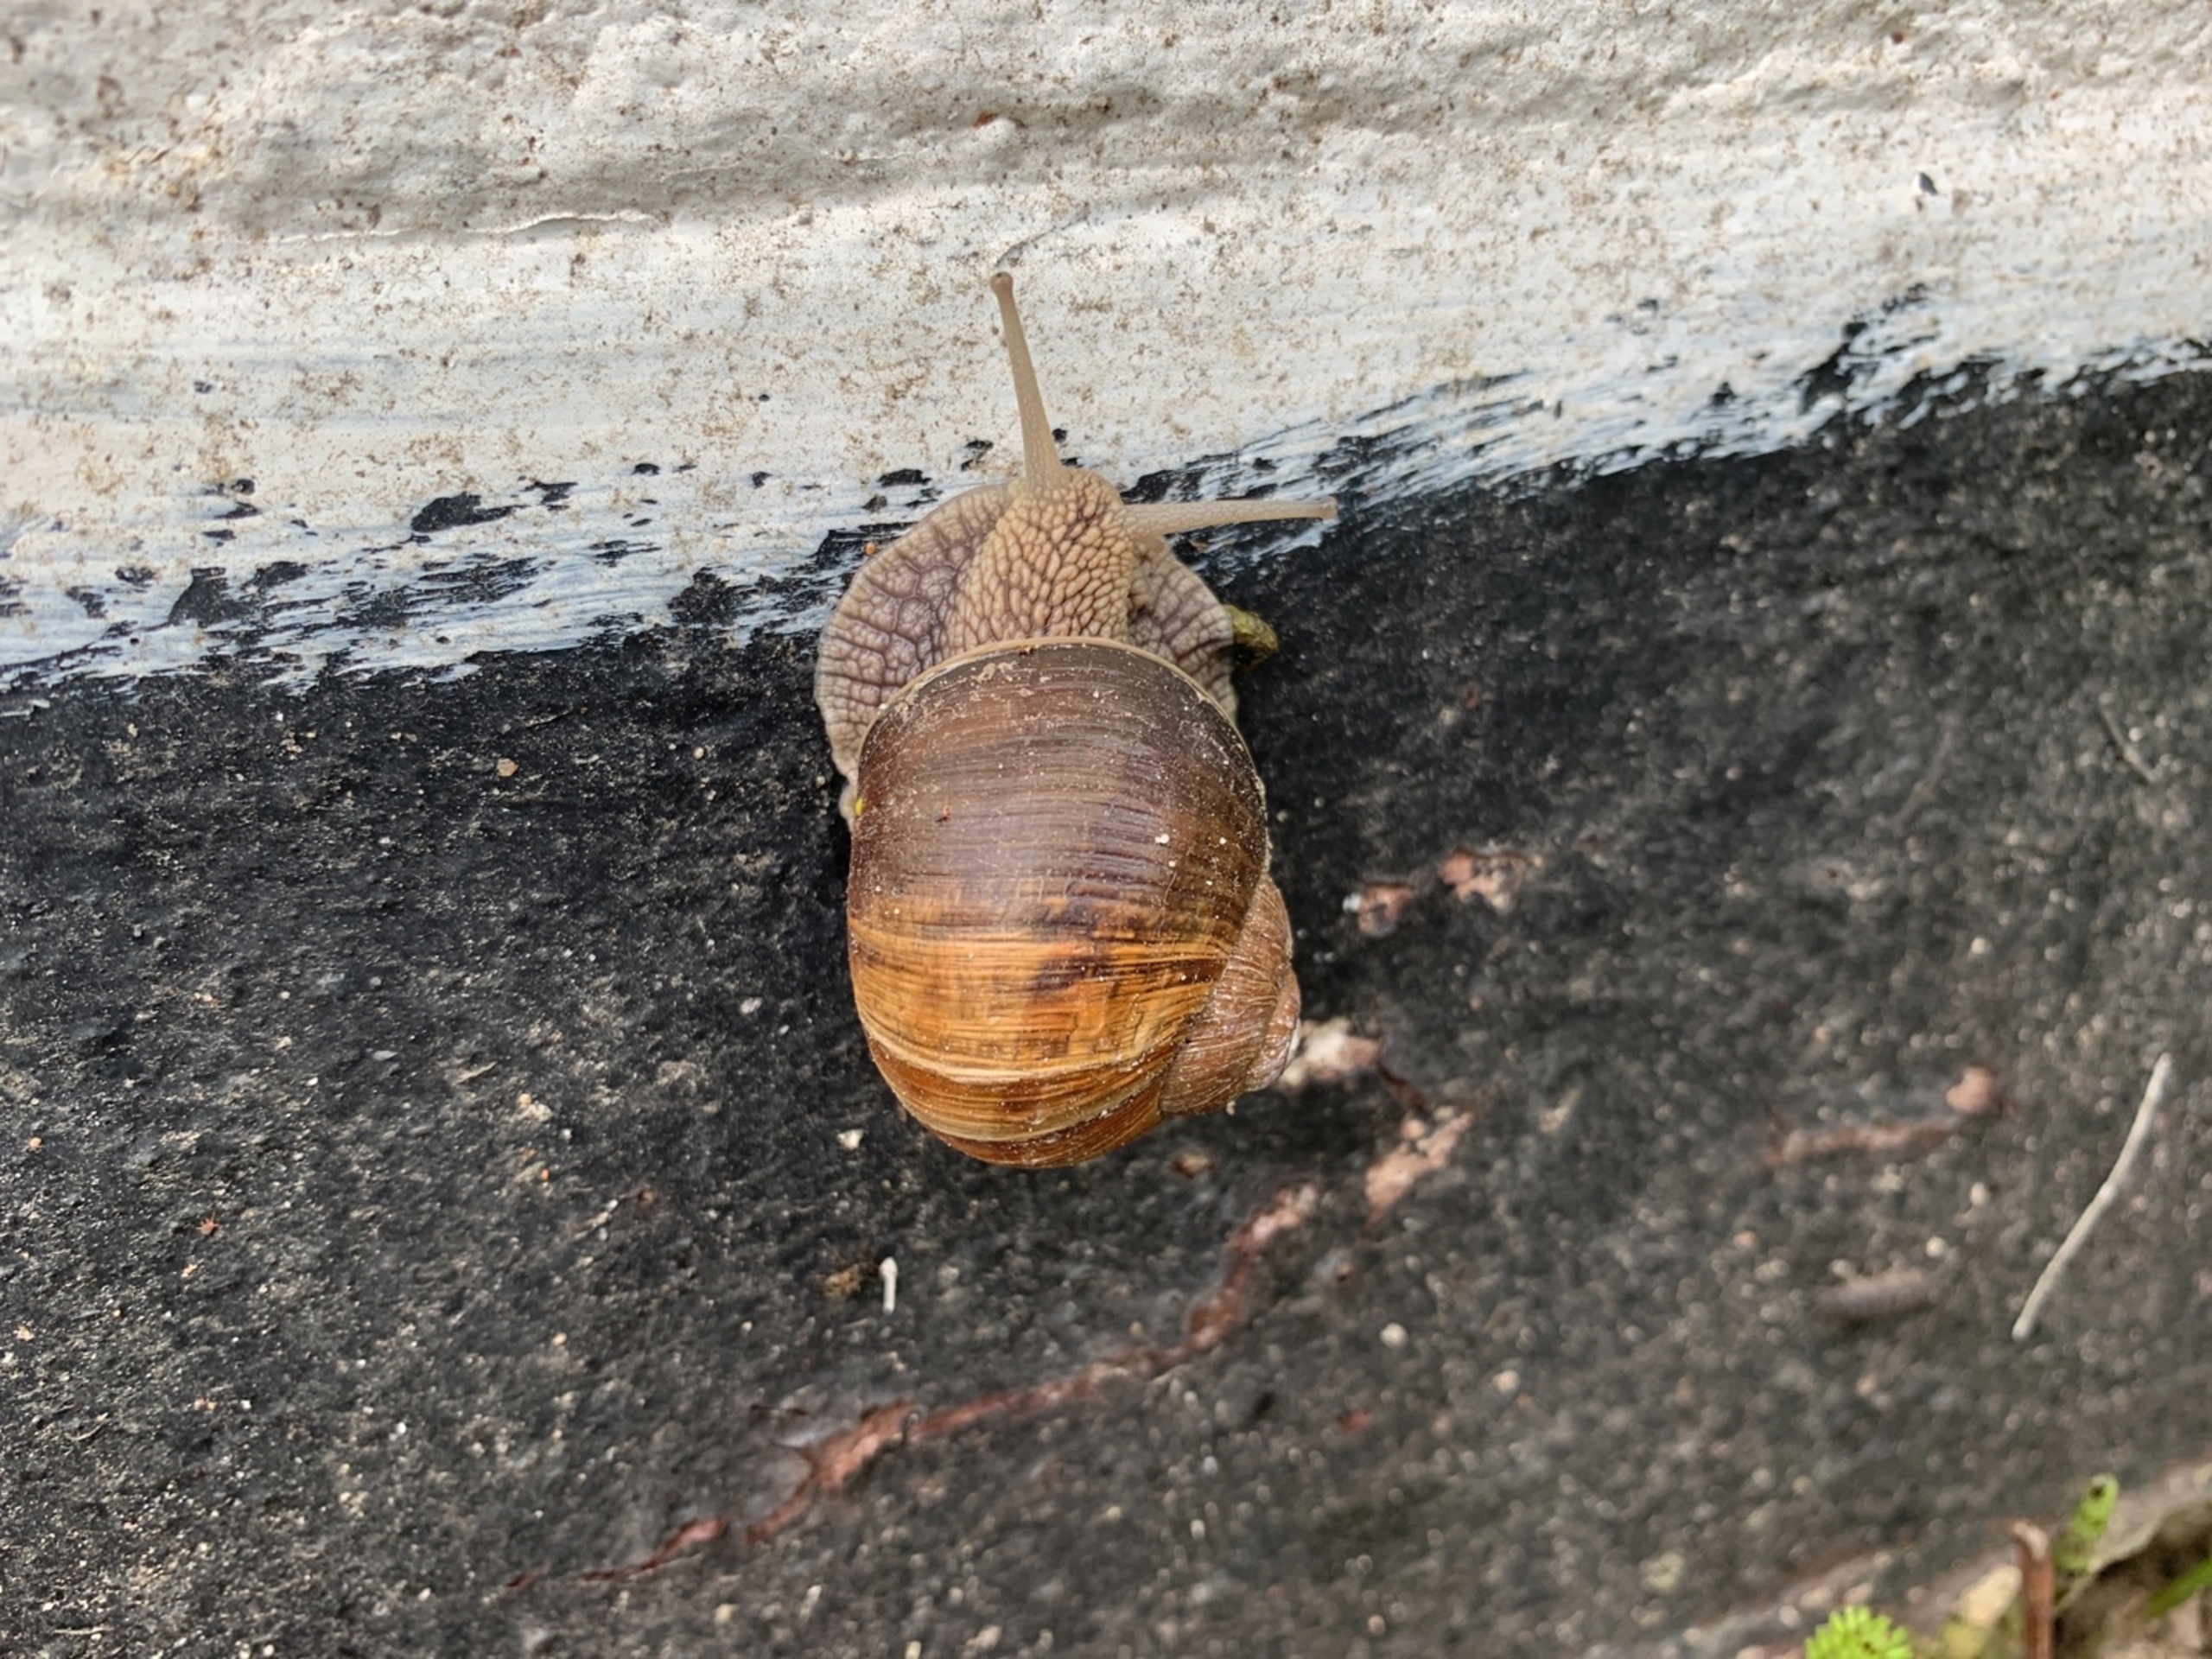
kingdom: Animalia
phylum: Mollusca
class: Gastropoda
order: Stylommatophora
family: Helicidae
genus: Helix
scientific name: Helix pomatia
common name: Vinbjergsnegl
